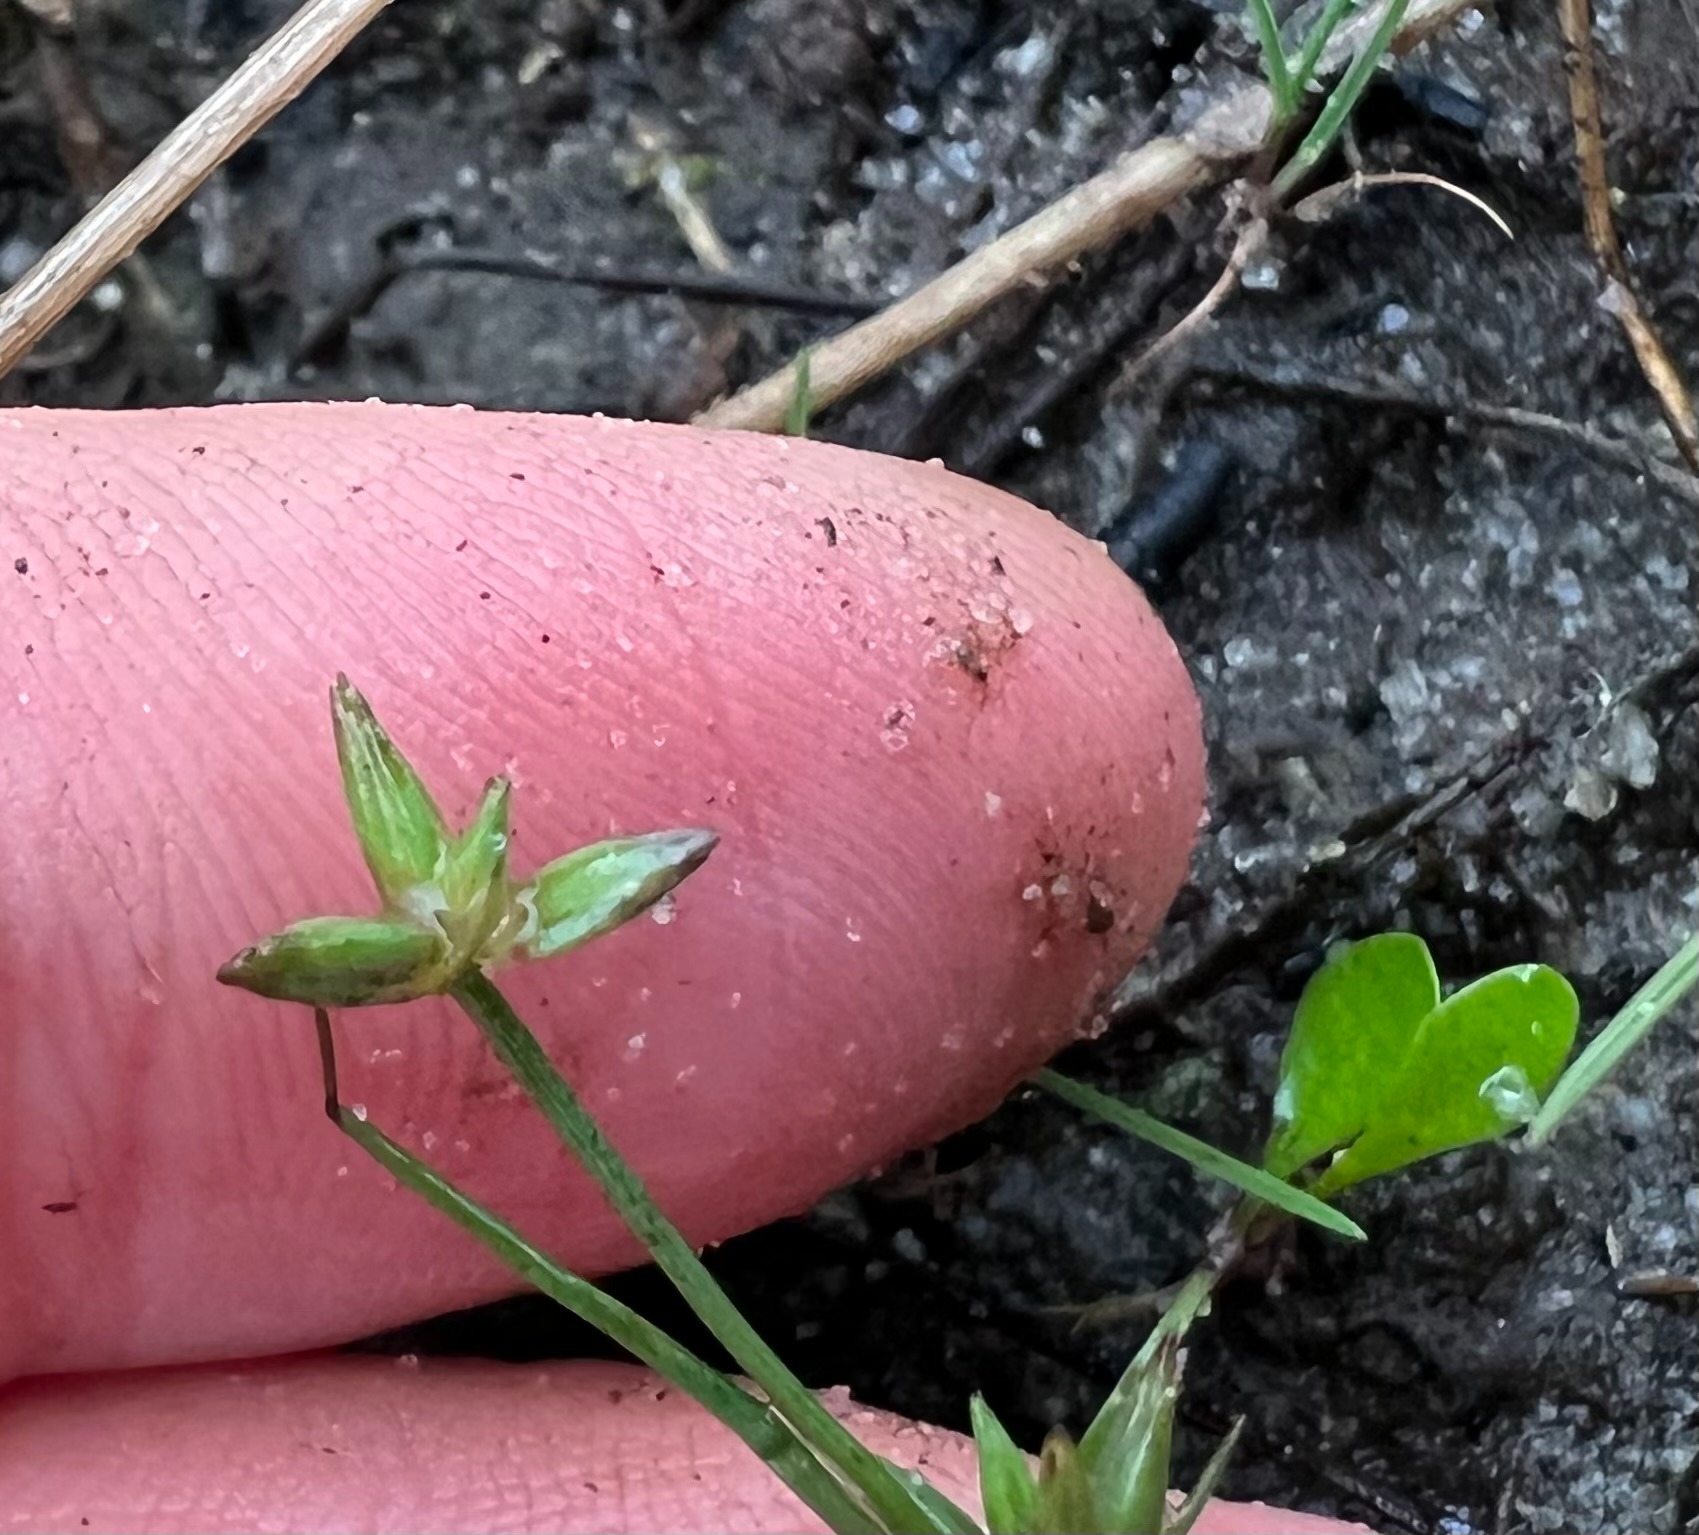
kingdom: Plantae
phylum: Tracheophyta
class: Liliopsida
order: Poales
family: Juncaceae
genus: Juncus
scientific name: Juncus pygmaeus
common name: Dværg-siv
